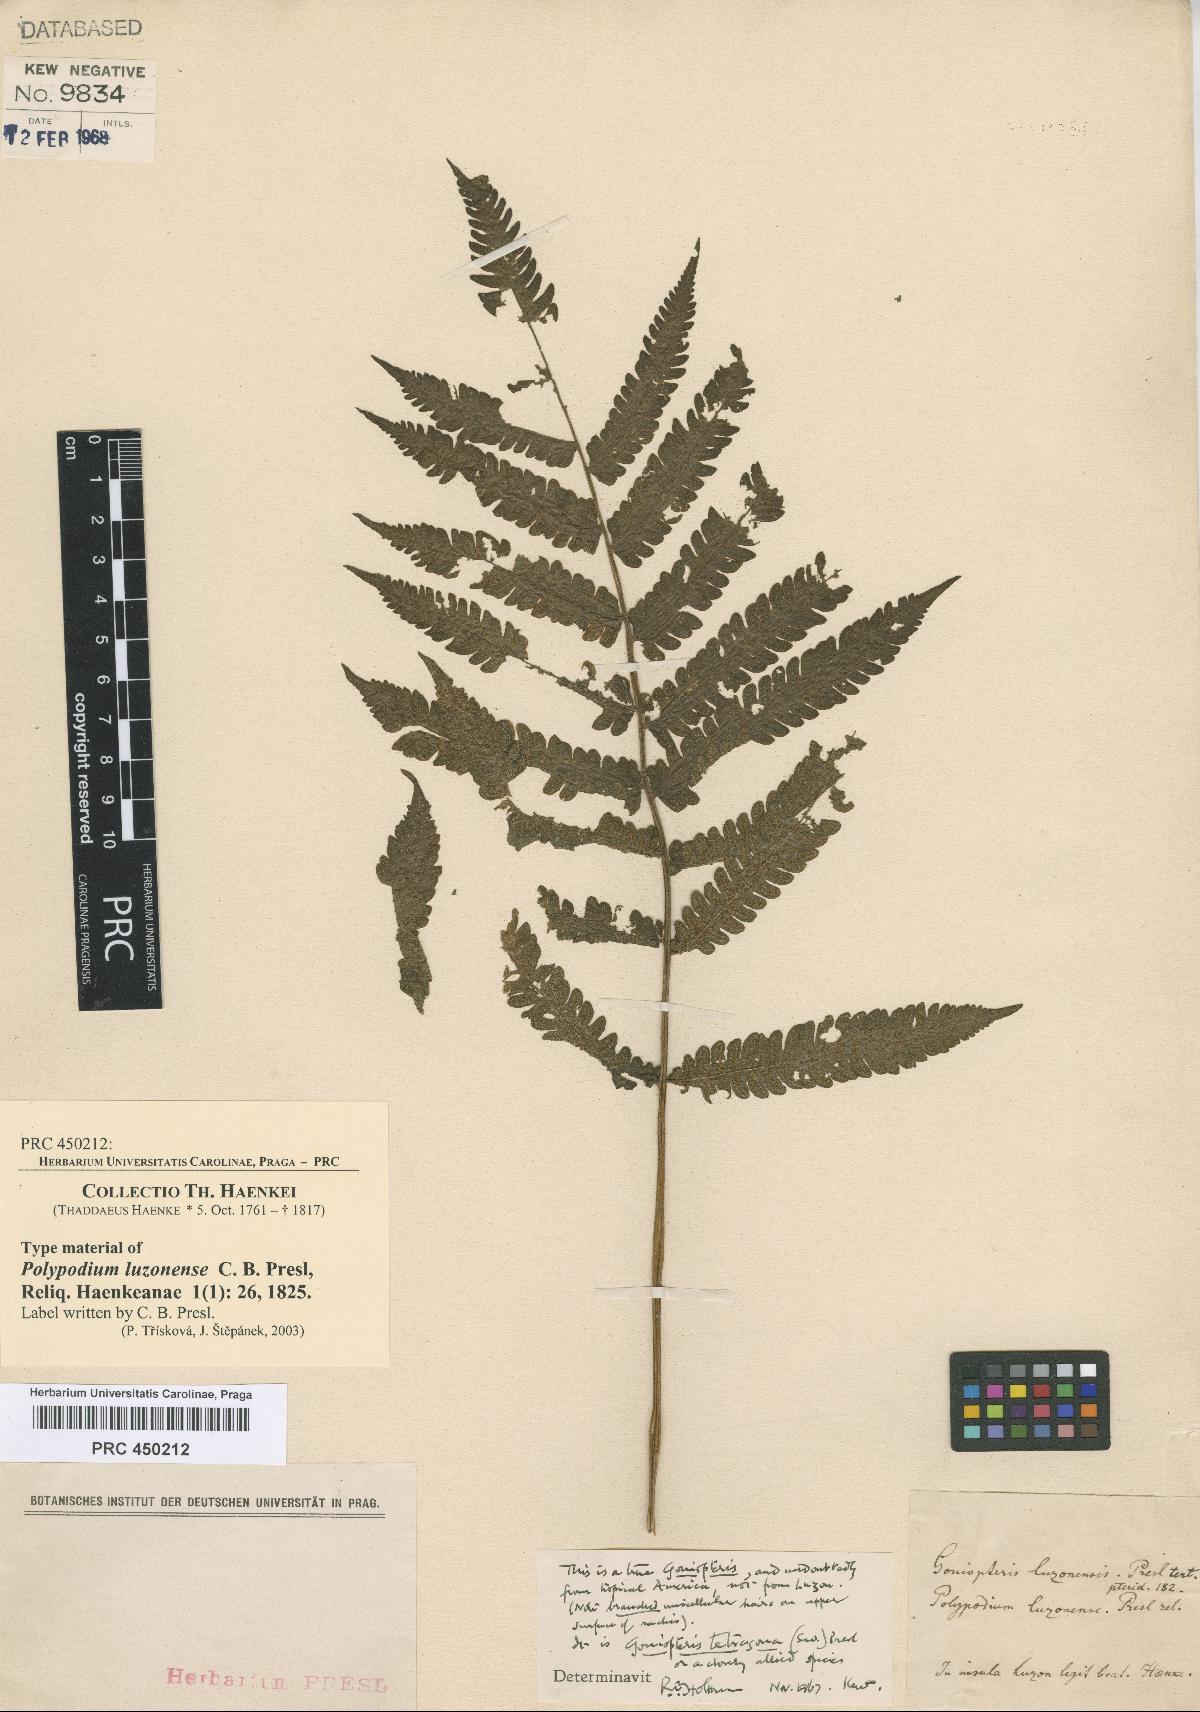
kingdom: Plantae
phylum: Tracheophyta
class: Polypodiopsida
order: Polypodiales
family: Polypodiaceae
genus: Polypodium
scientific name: Polypodium luzonense
